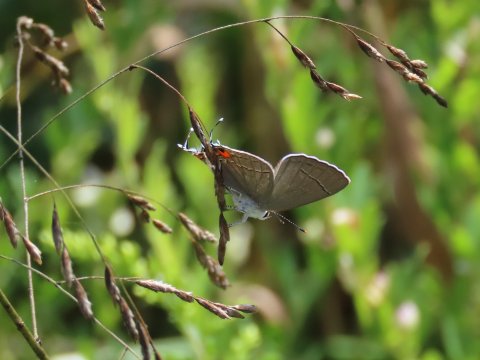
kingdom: Animalia
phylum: Arthropoda
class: Insecta
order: Lepidoptera
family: Lycaenidae
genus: Strymon
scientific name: Strymon melinus
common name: Gray Hairstreak
